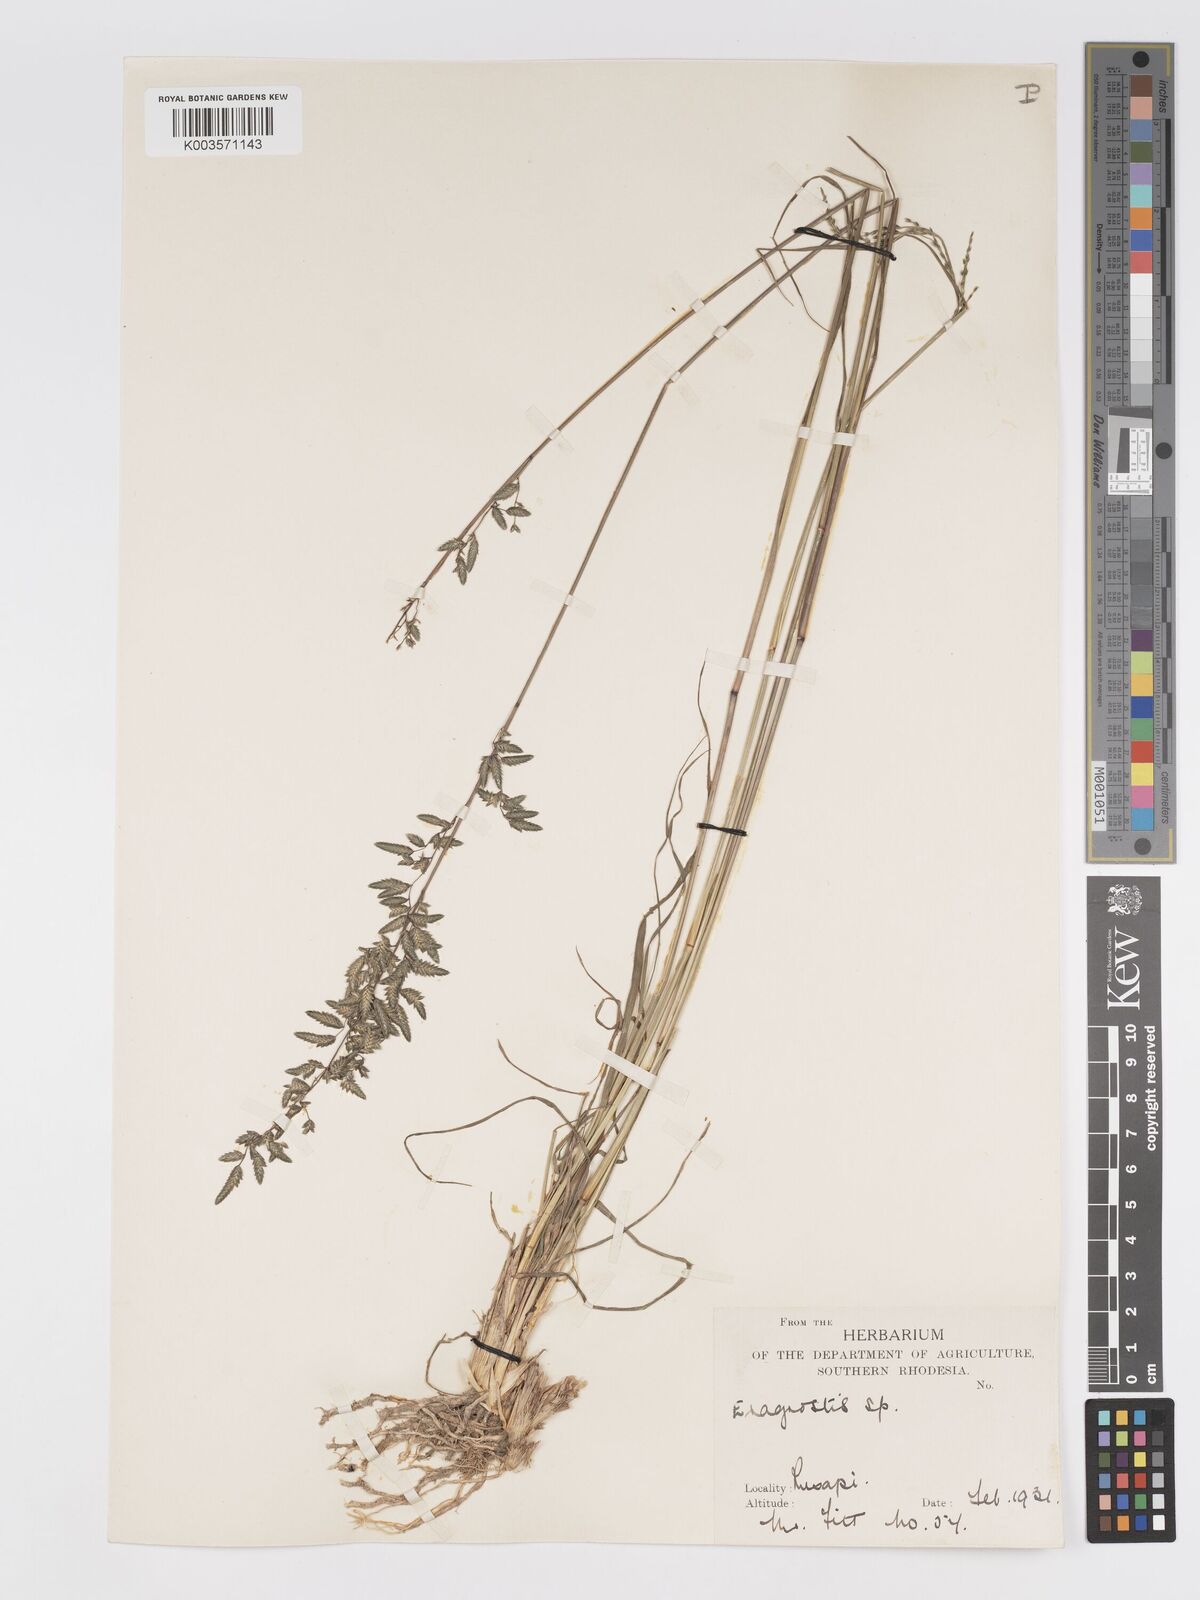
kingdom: Plantae
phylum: Tracheophyta
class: Liliopsida
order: Poales
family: Poaceae
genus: Eragrostis
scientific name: Eragrostis nindensis
